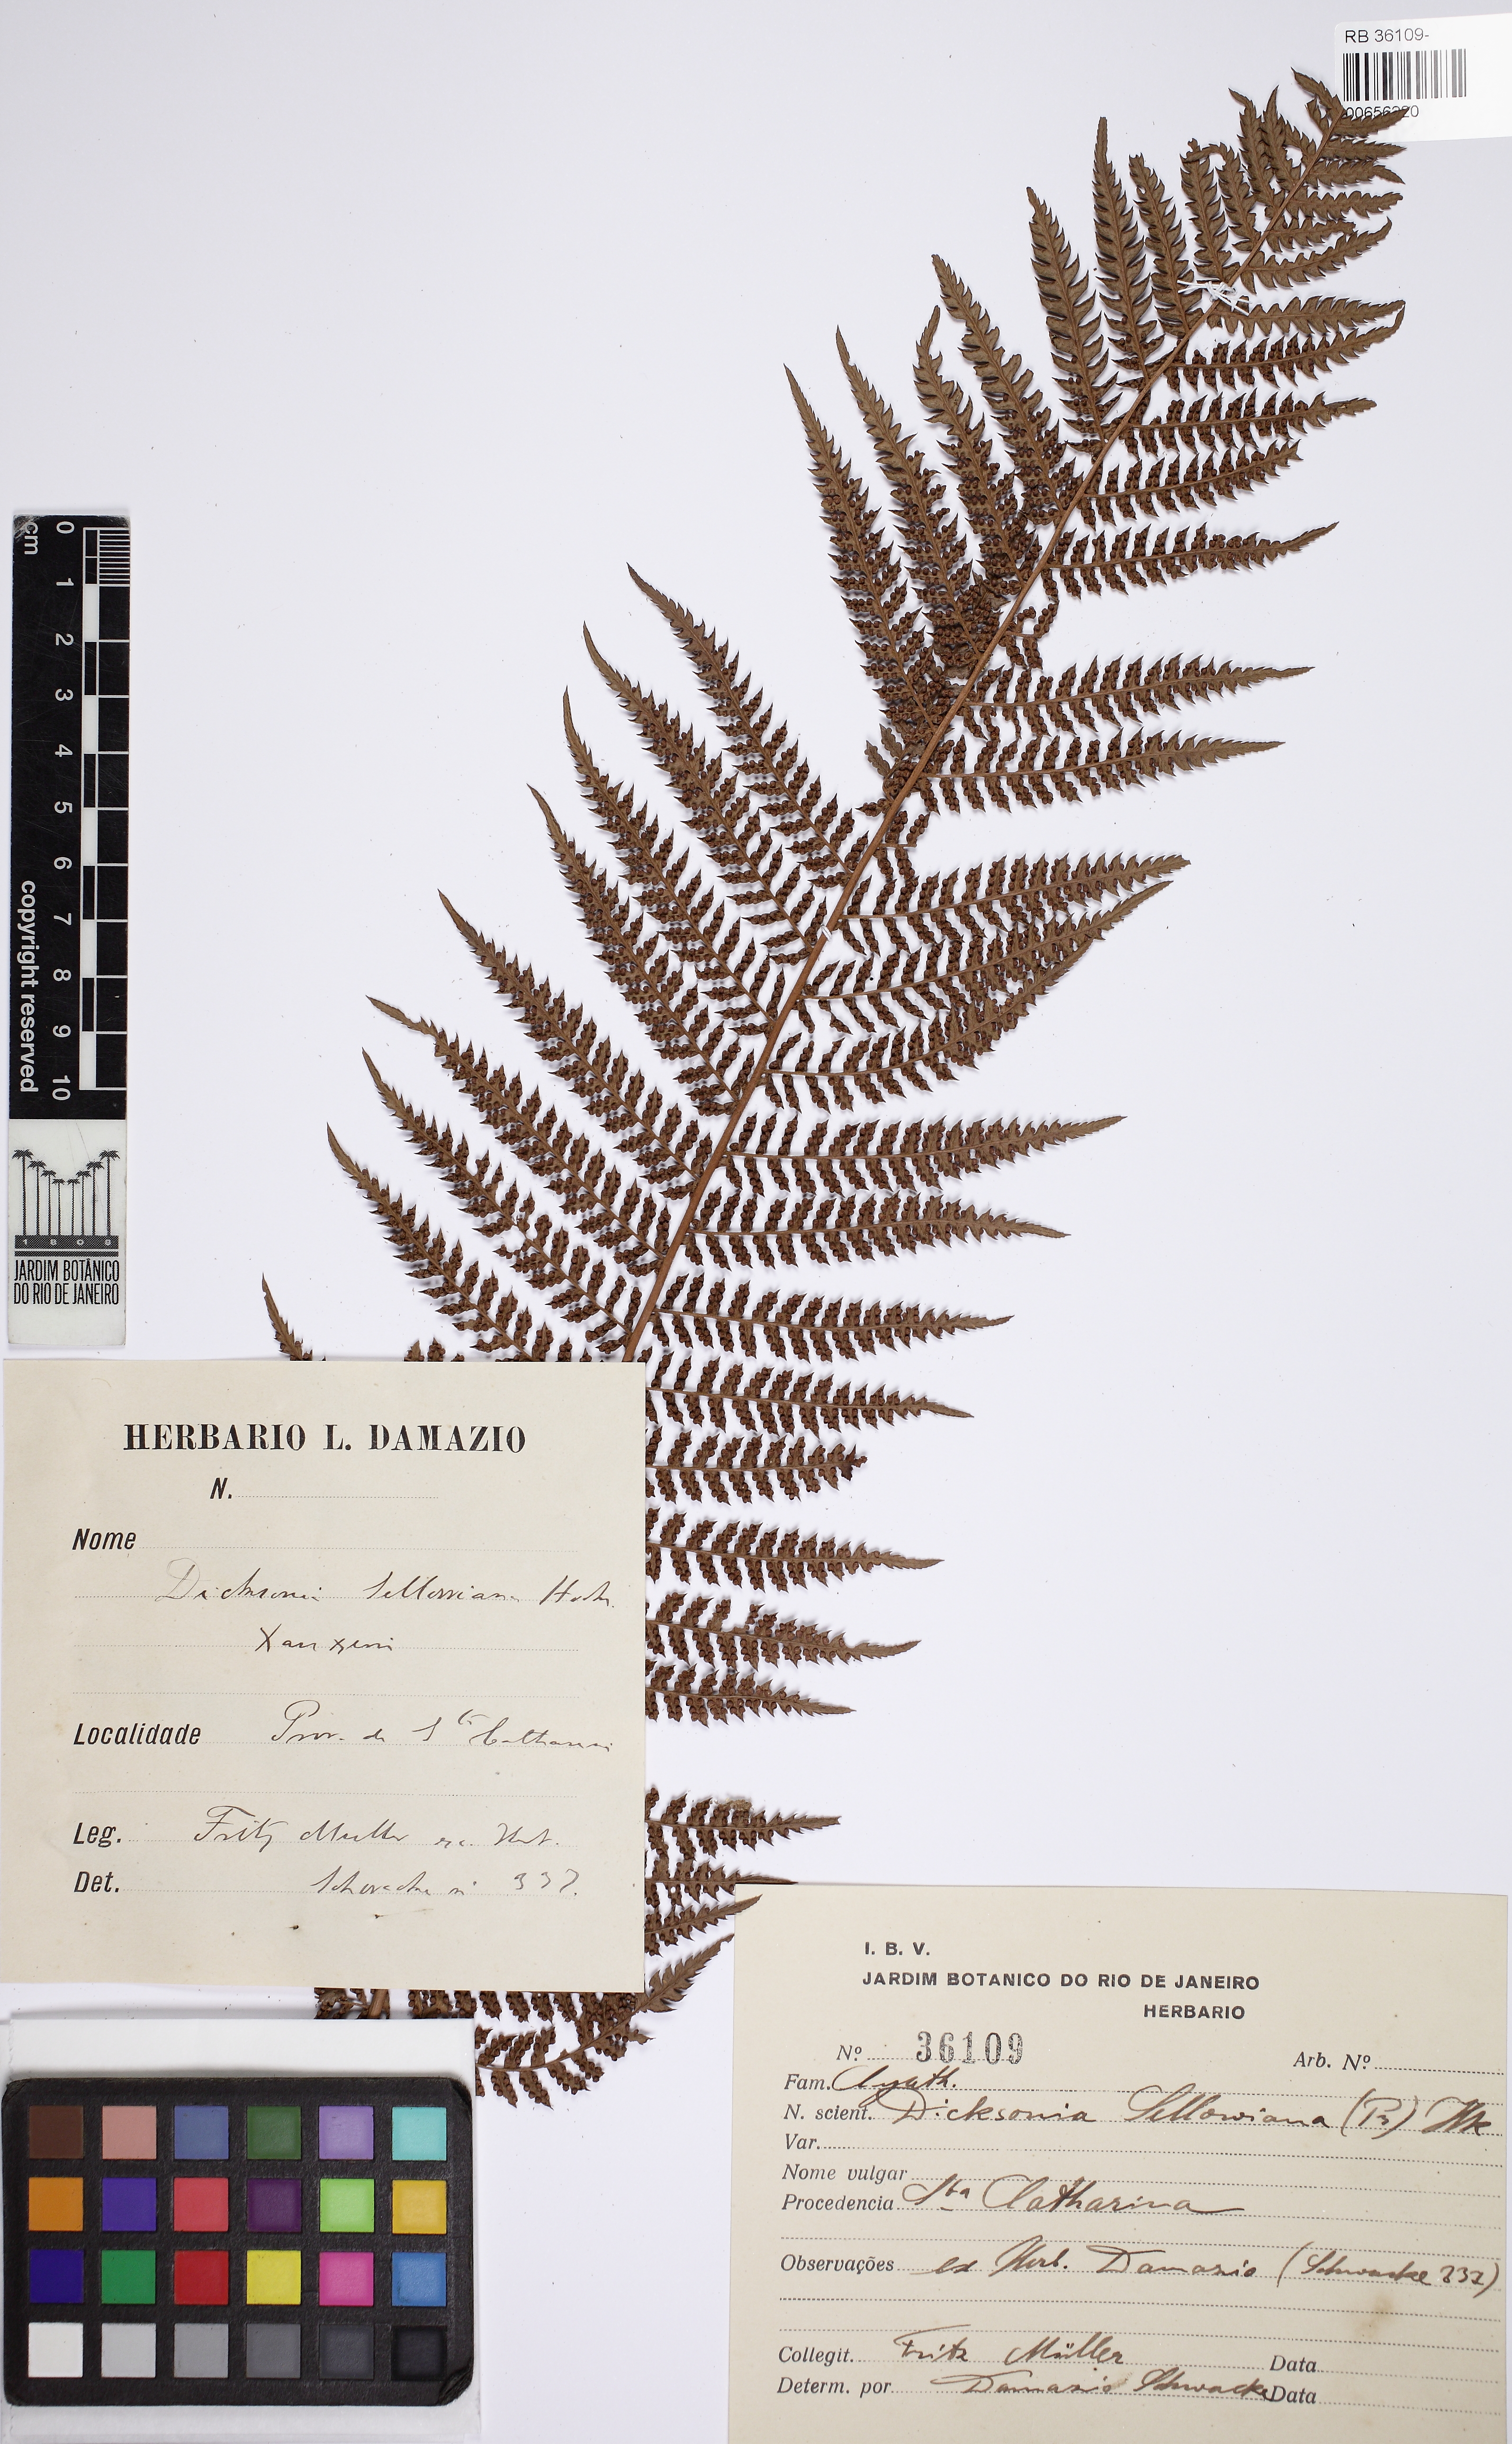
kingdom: Plantae
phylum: Tracheophyta
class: Polypodiopsida
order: Cyatheales
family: Dicksoniaceae
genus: Dicksonia
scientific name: Dicksonia sellowiana
